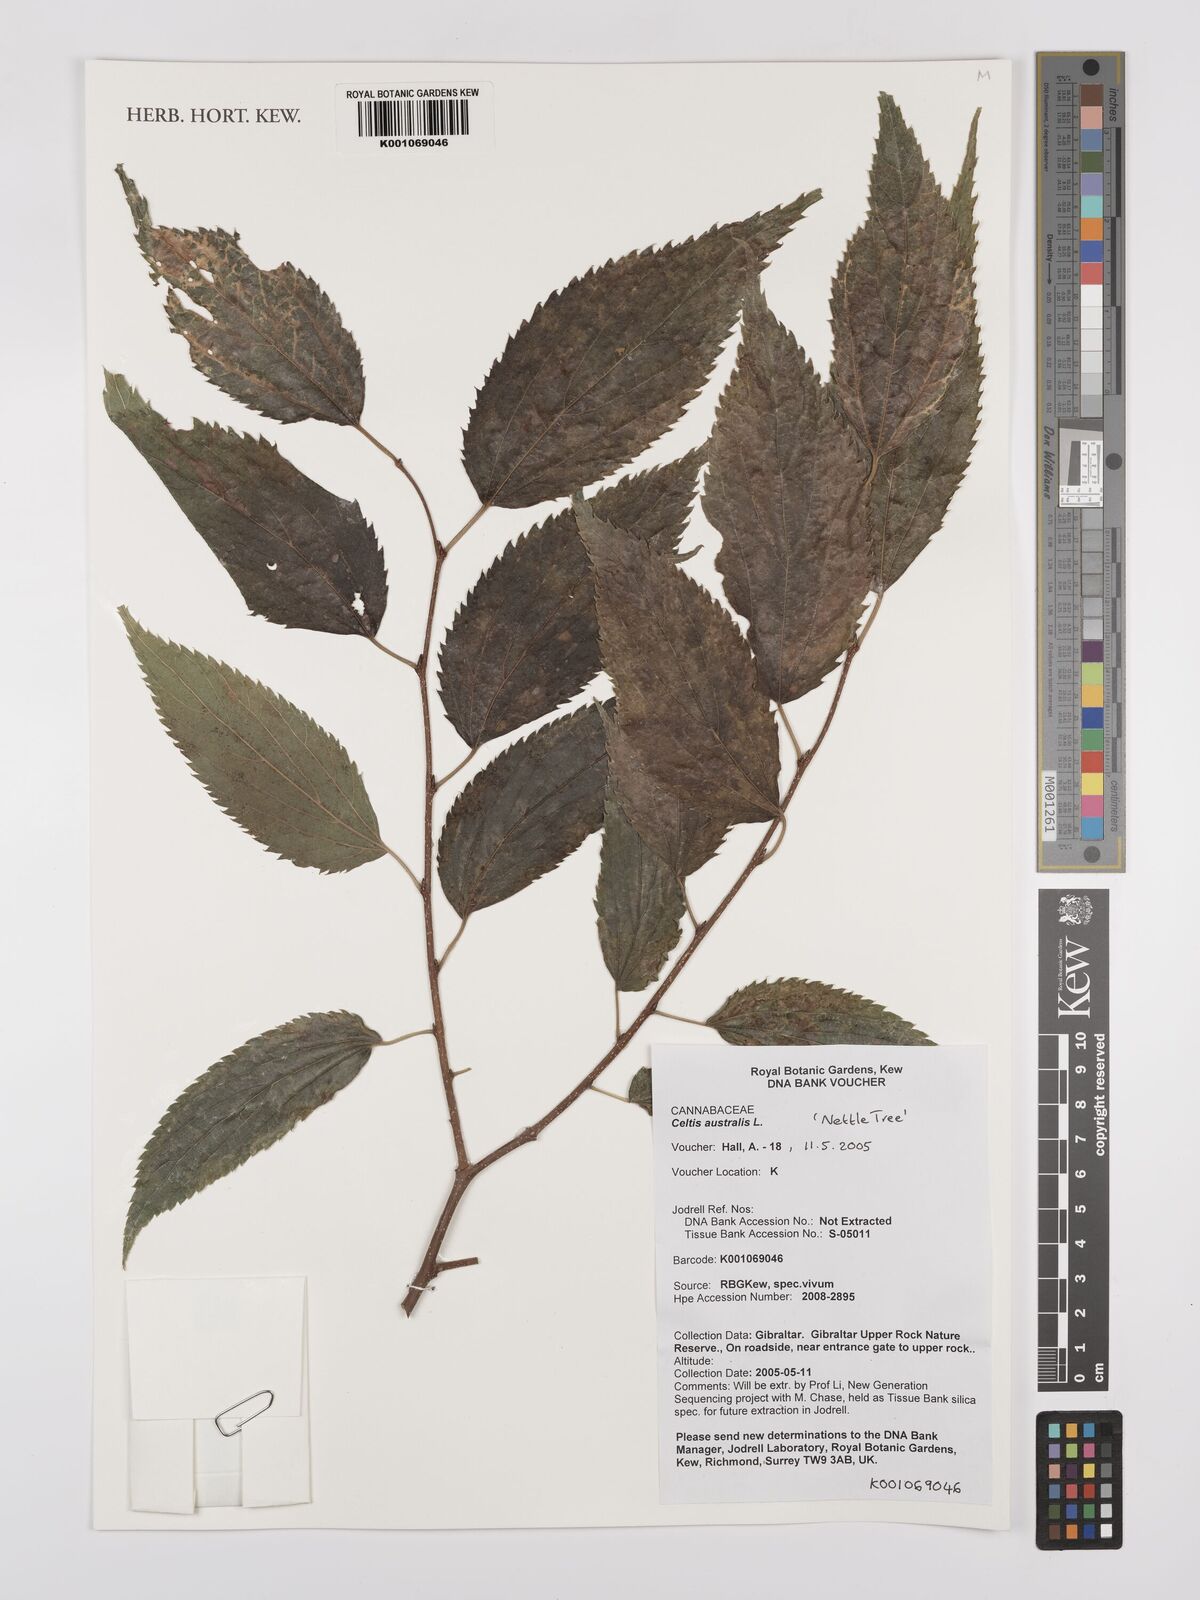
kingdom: Plantae
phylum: Tracheophyta
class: Magnoliopsida
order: Rosales
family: Cannabaceae
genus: Celtis
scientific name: Celtis australis
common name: European hackberry
